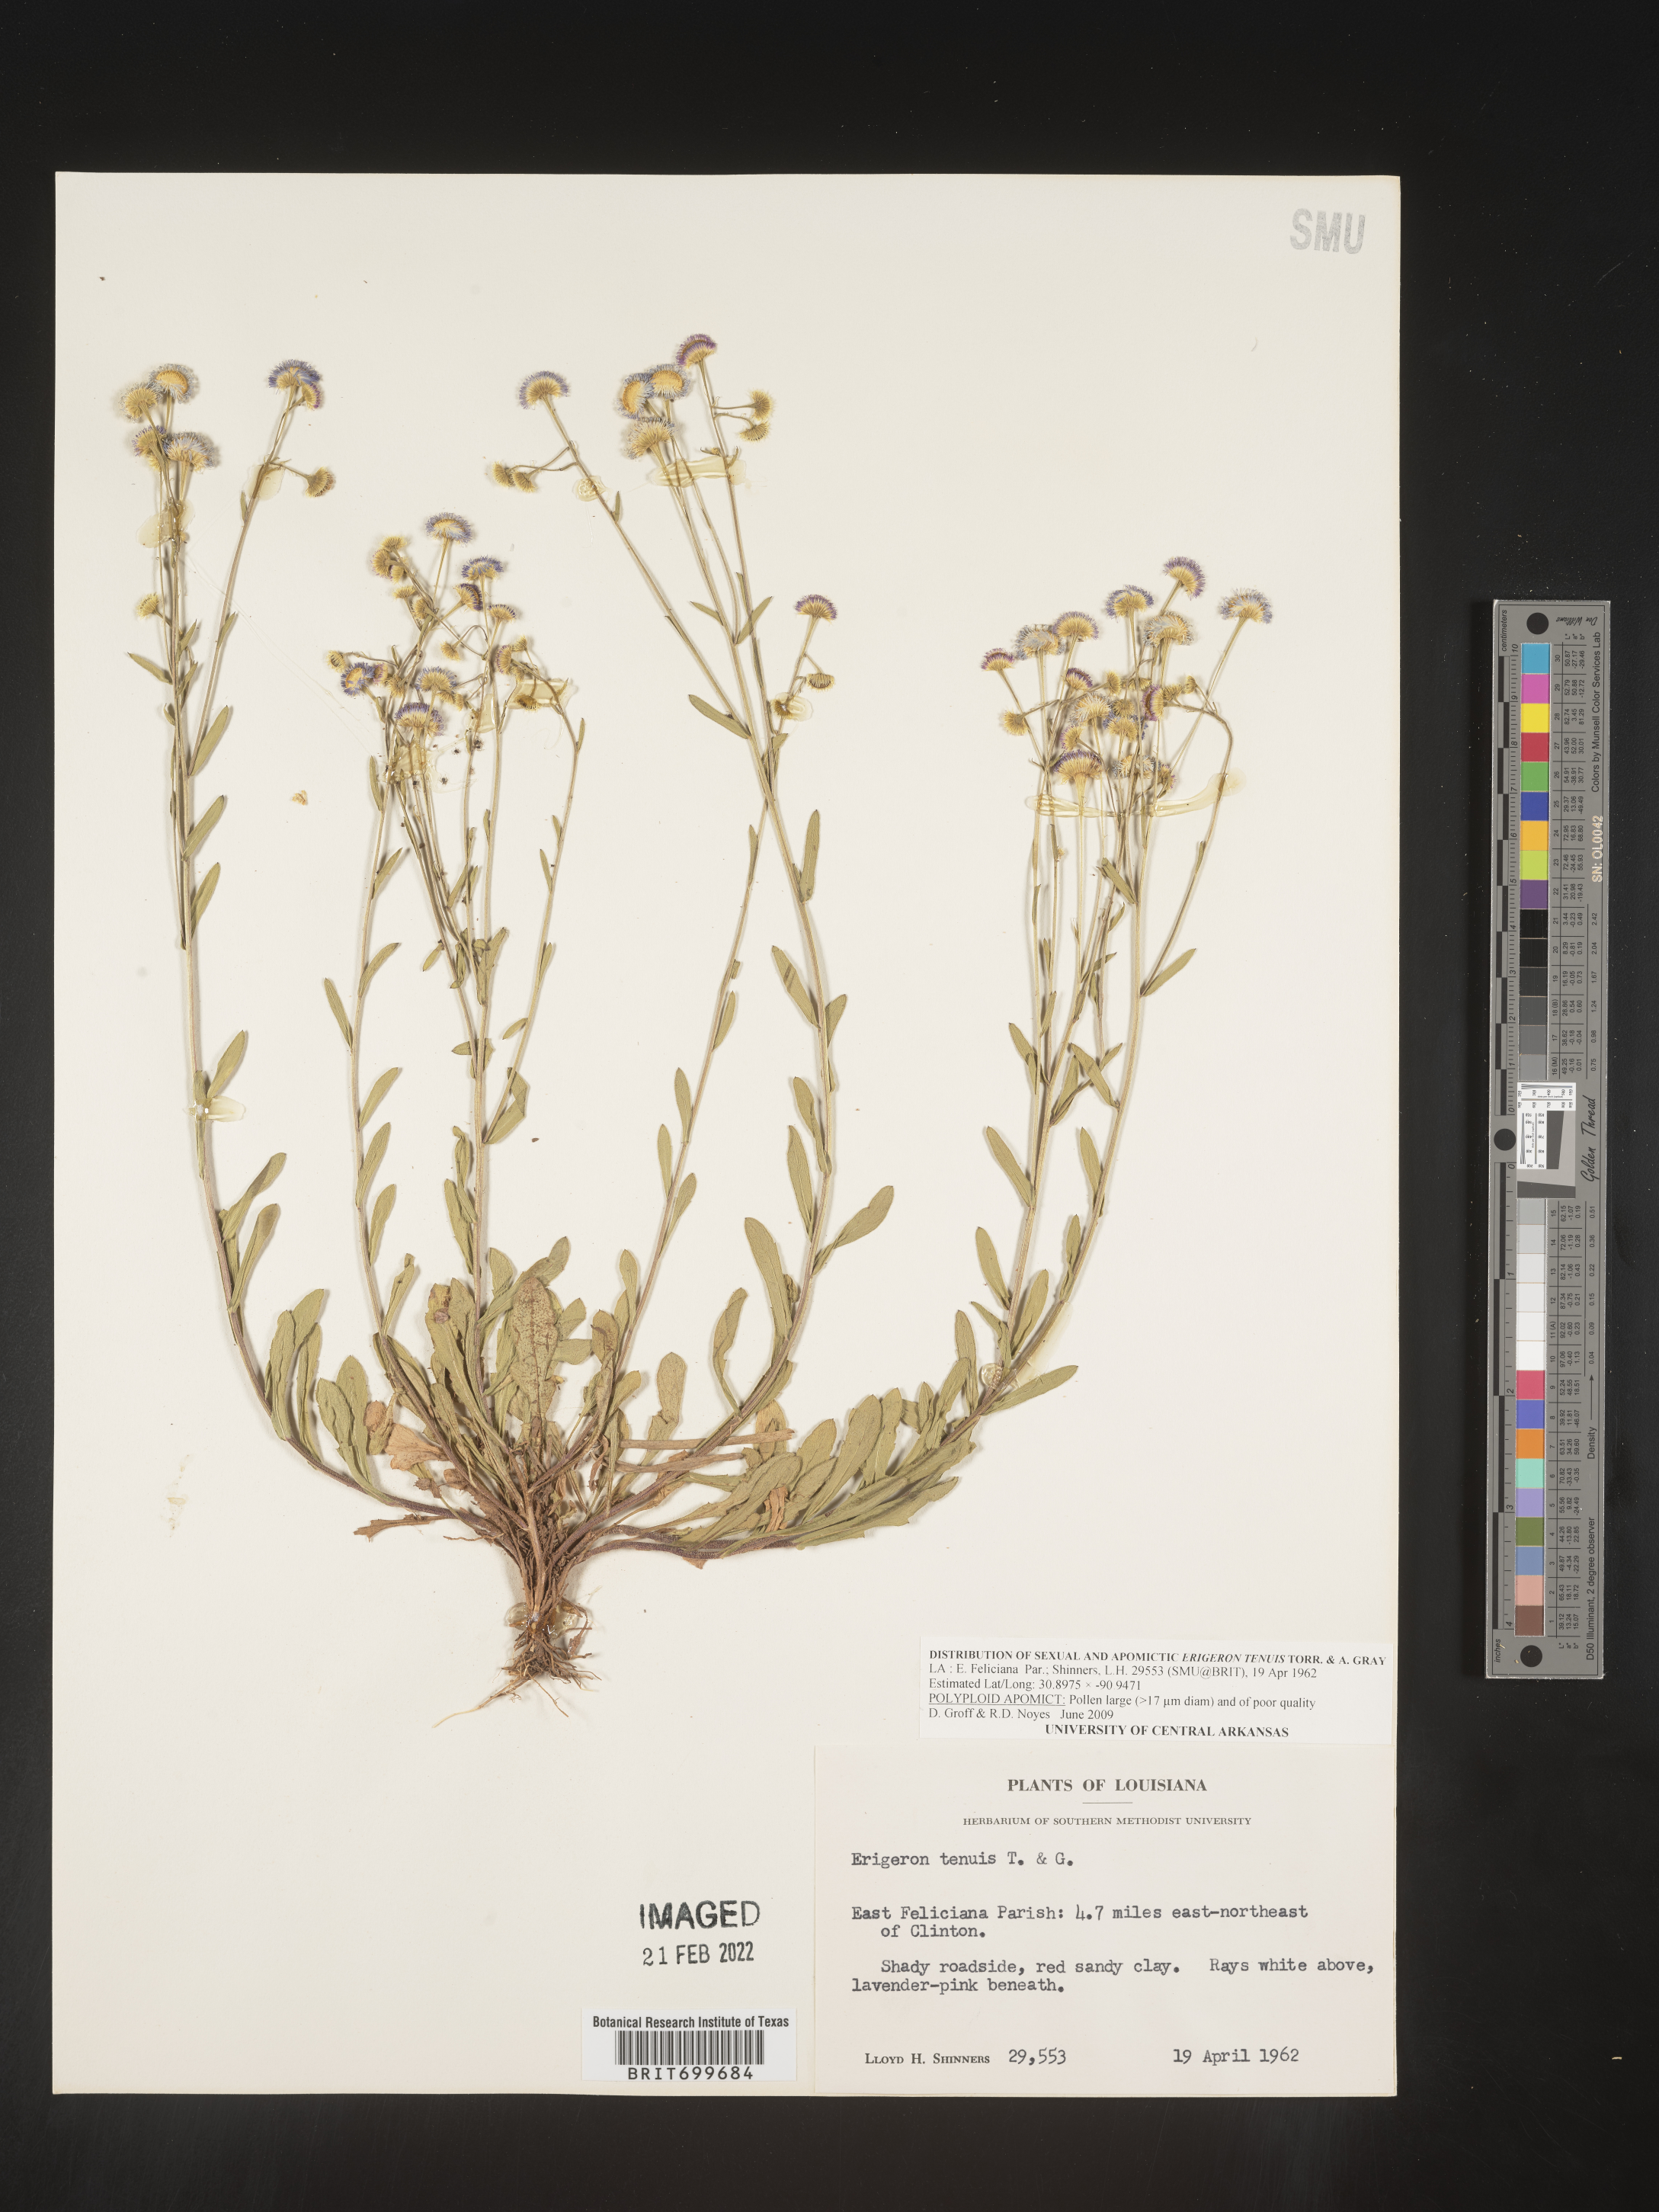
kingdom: Plantae
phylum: Tracheophyta
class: Magnoliopsida
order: Asterales
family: Asteraceae
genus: Erigeron
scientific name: Erigeron tenuis
